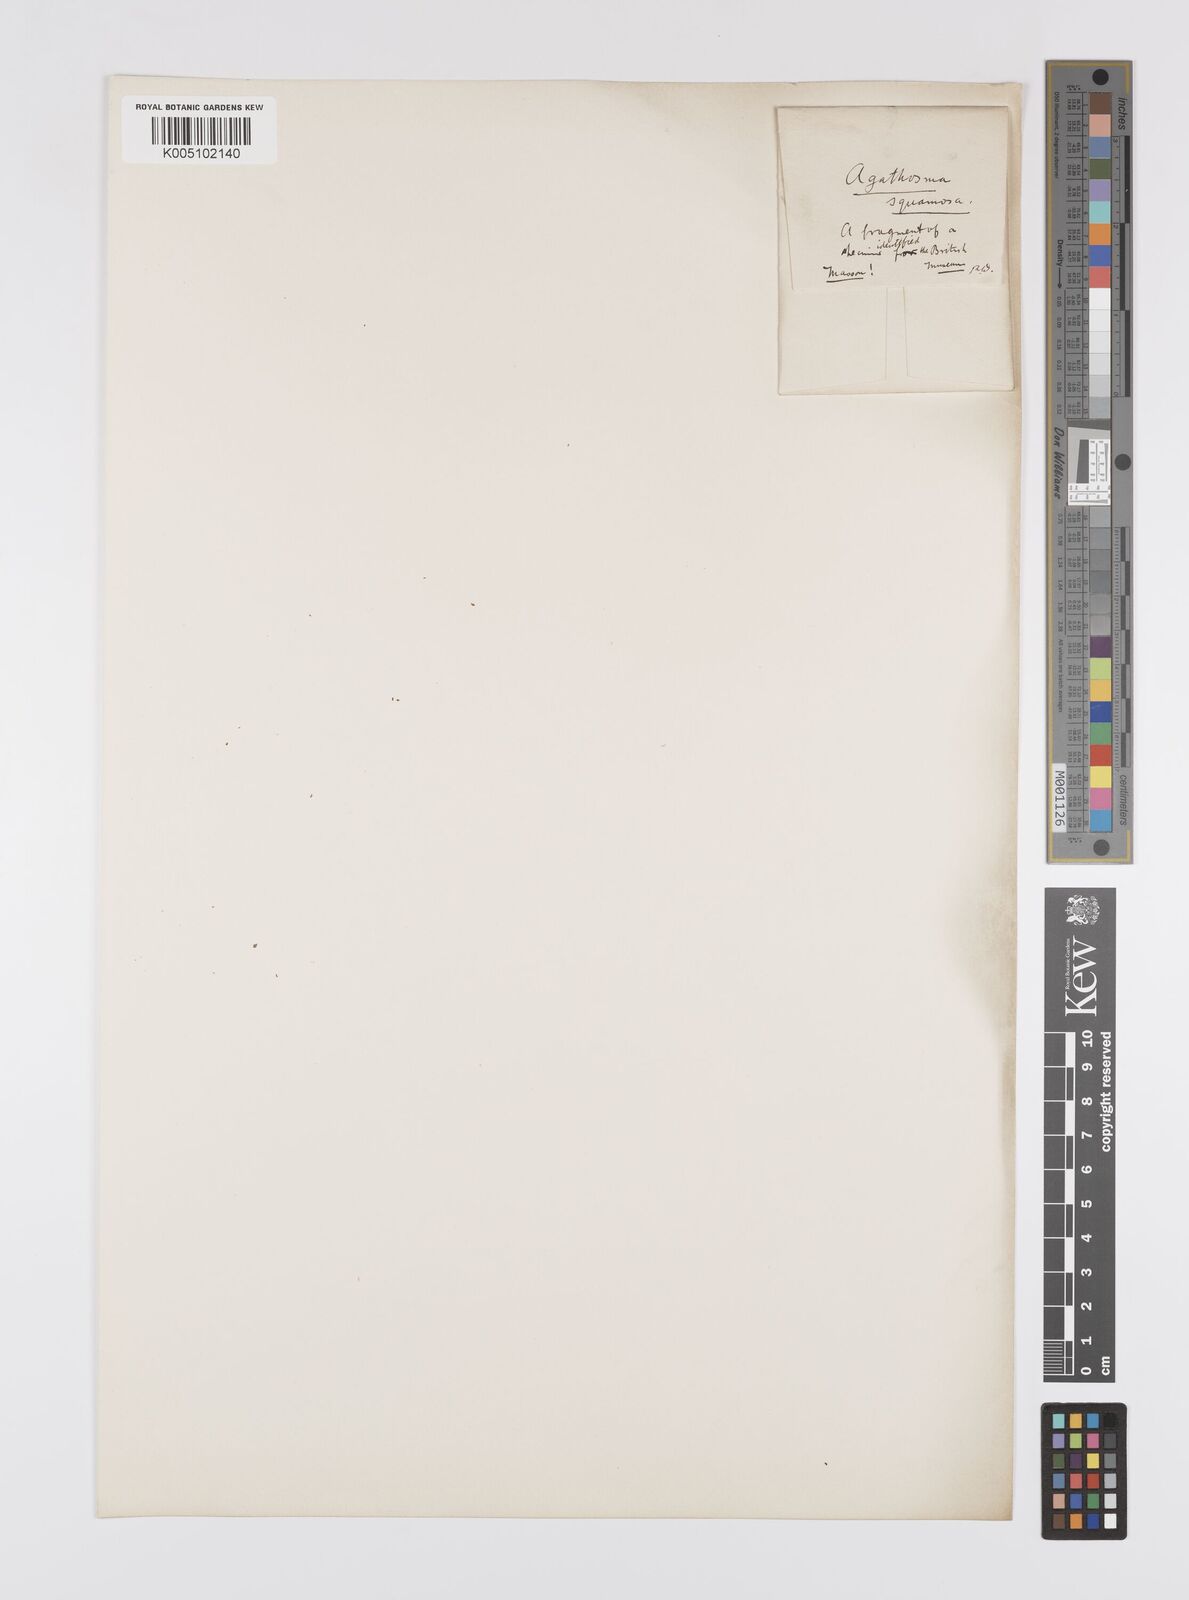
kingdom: Plantae
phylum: Tracheophyta
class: Magnoliopsida
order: Sapindales
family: Rutaceae
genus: Agathosma
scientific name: Agathosma squamosa
